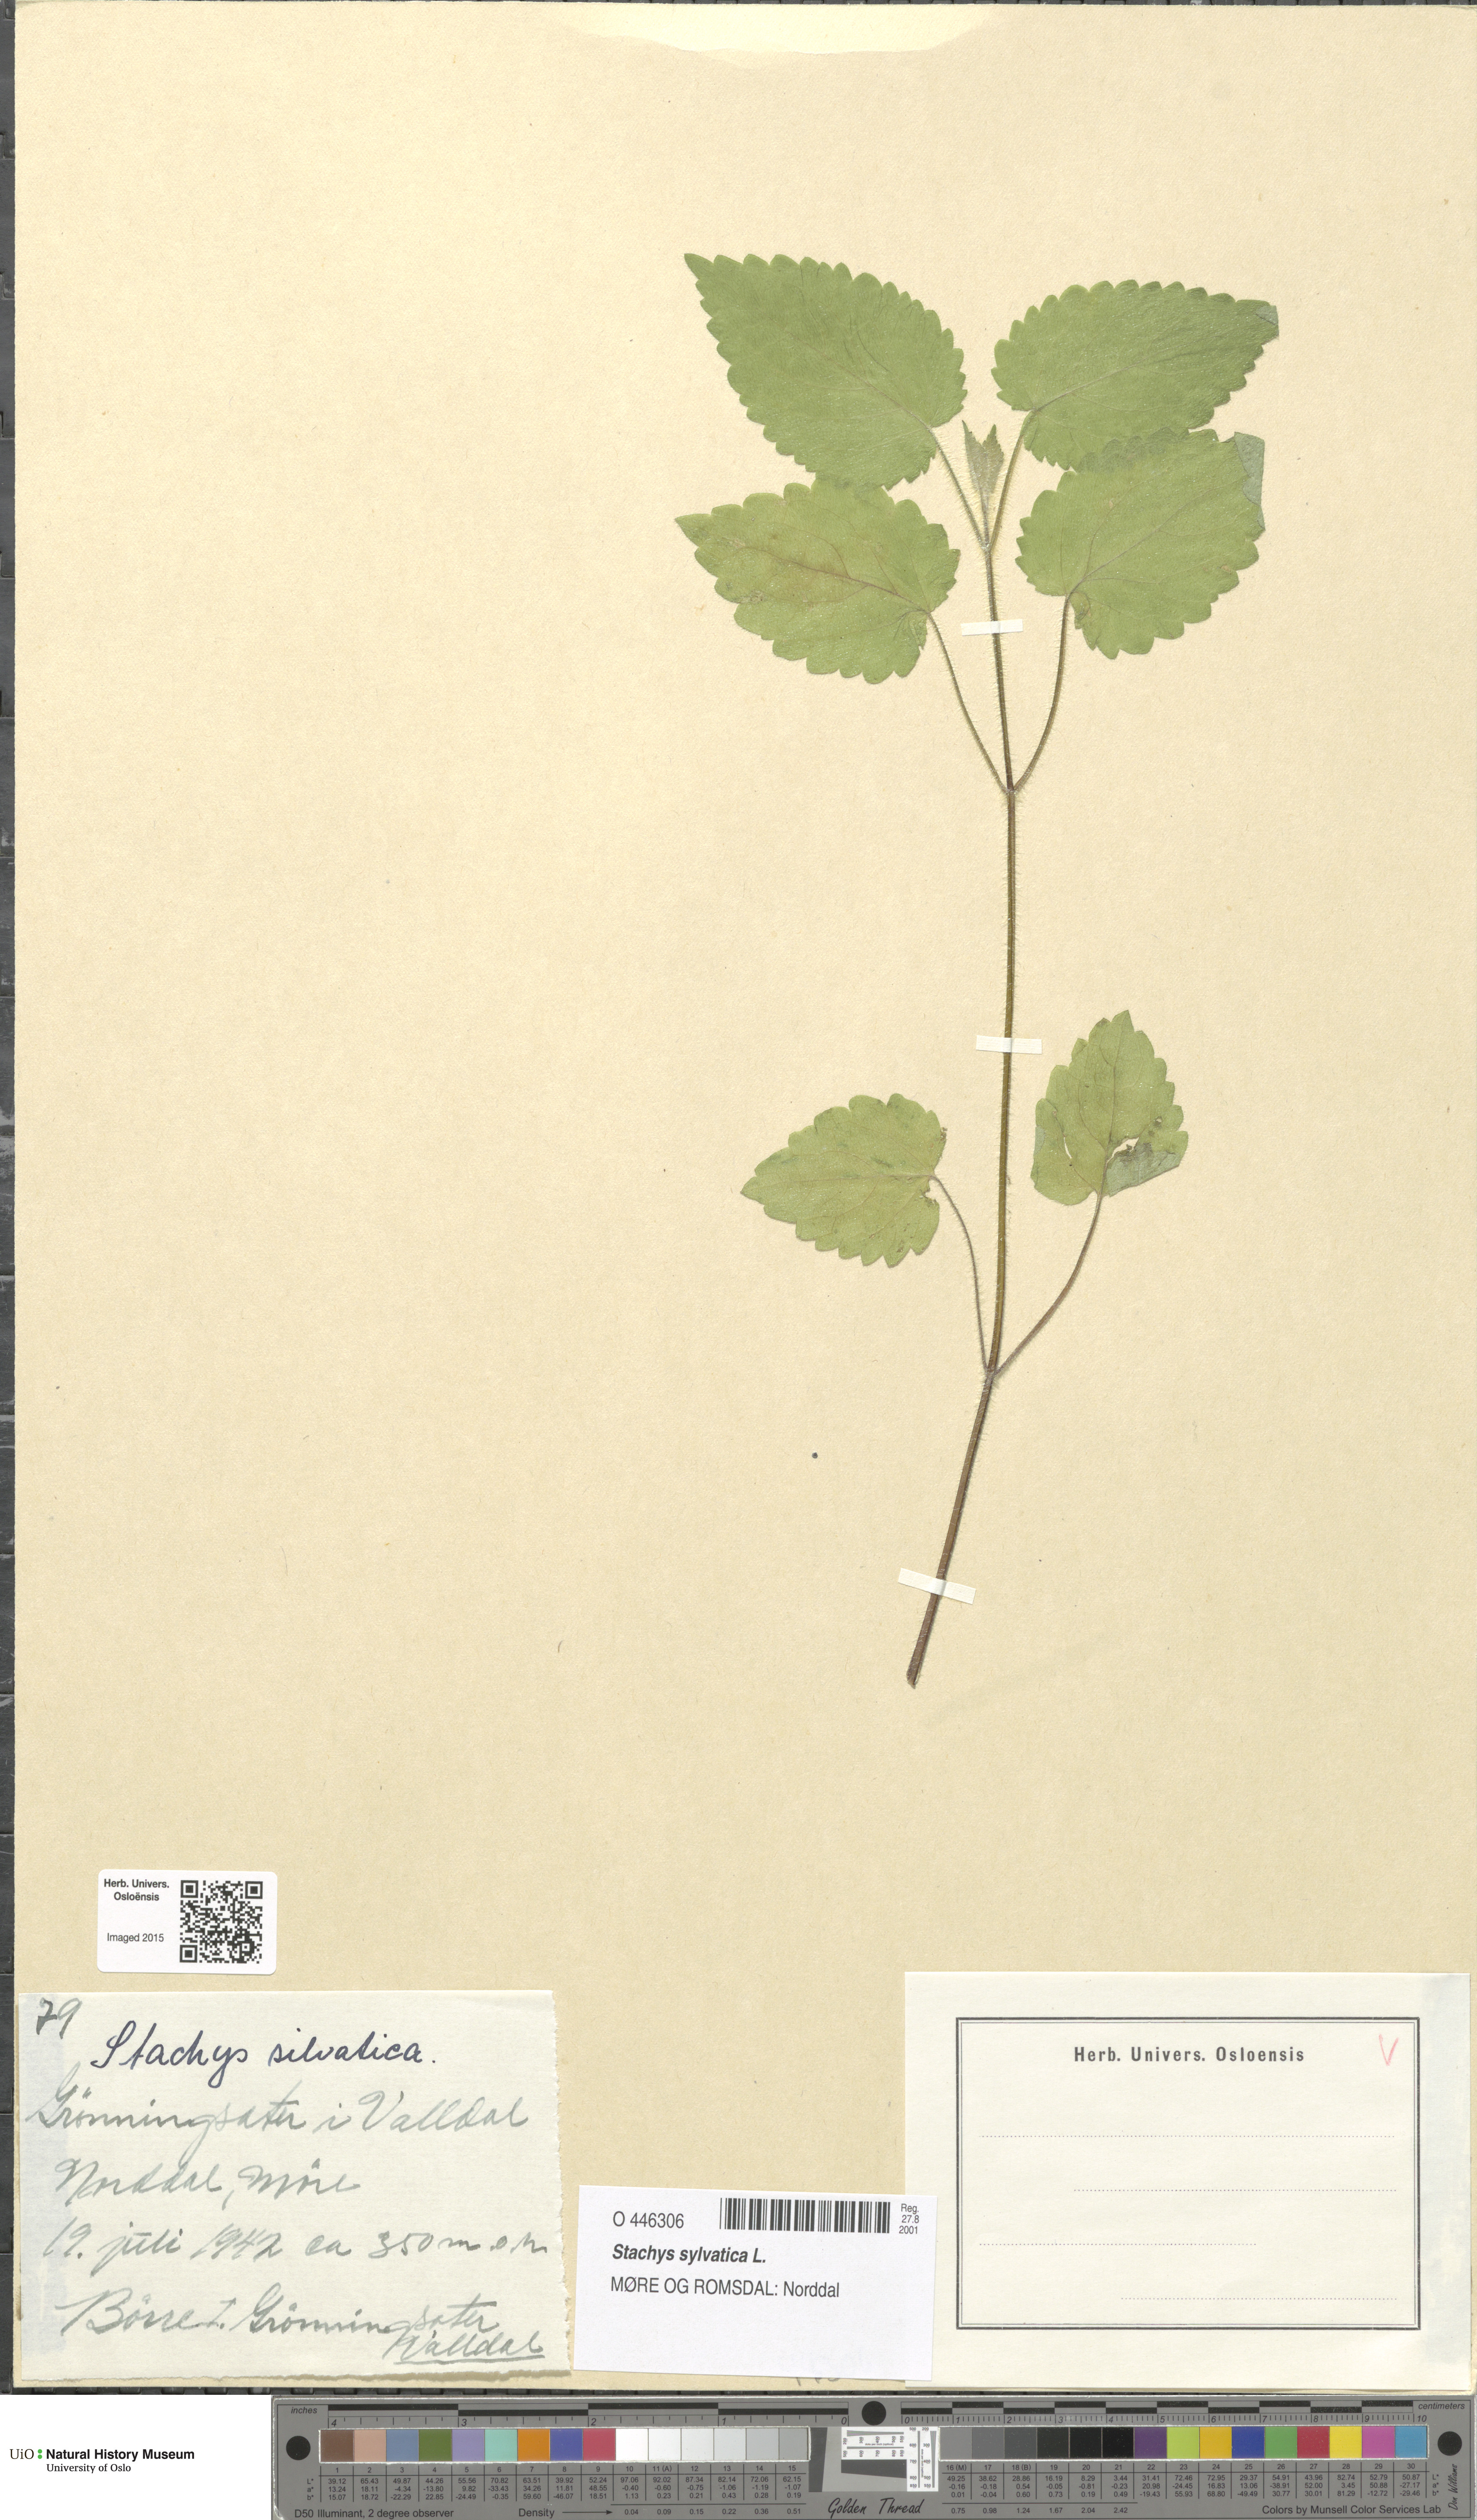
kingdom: Plantae
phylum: Tracheophyta
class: Magnoliopsida
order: Lamiales
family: Lamiaceae
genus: Stachys
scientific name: Stachys sylvatica
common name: Hedge woundwort
